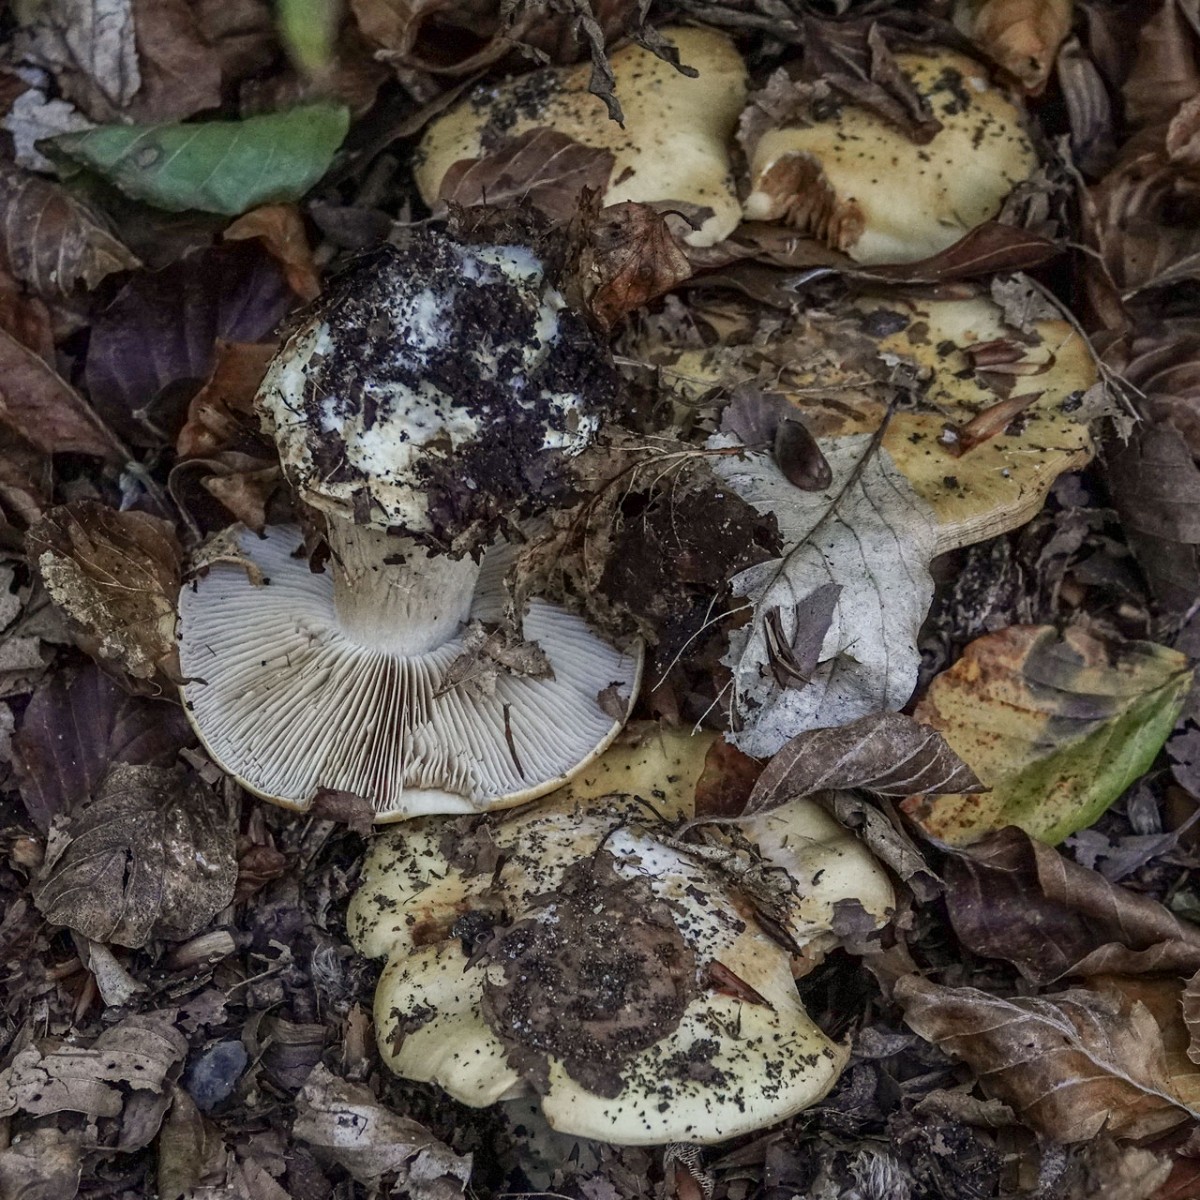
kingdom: Fungi
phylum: Basidiomycota
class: Agaricomycetes
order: Agaricales
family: Cortinariaceae
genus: Phlegmacium
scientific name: Phlegmacium xantho-ochraceum
